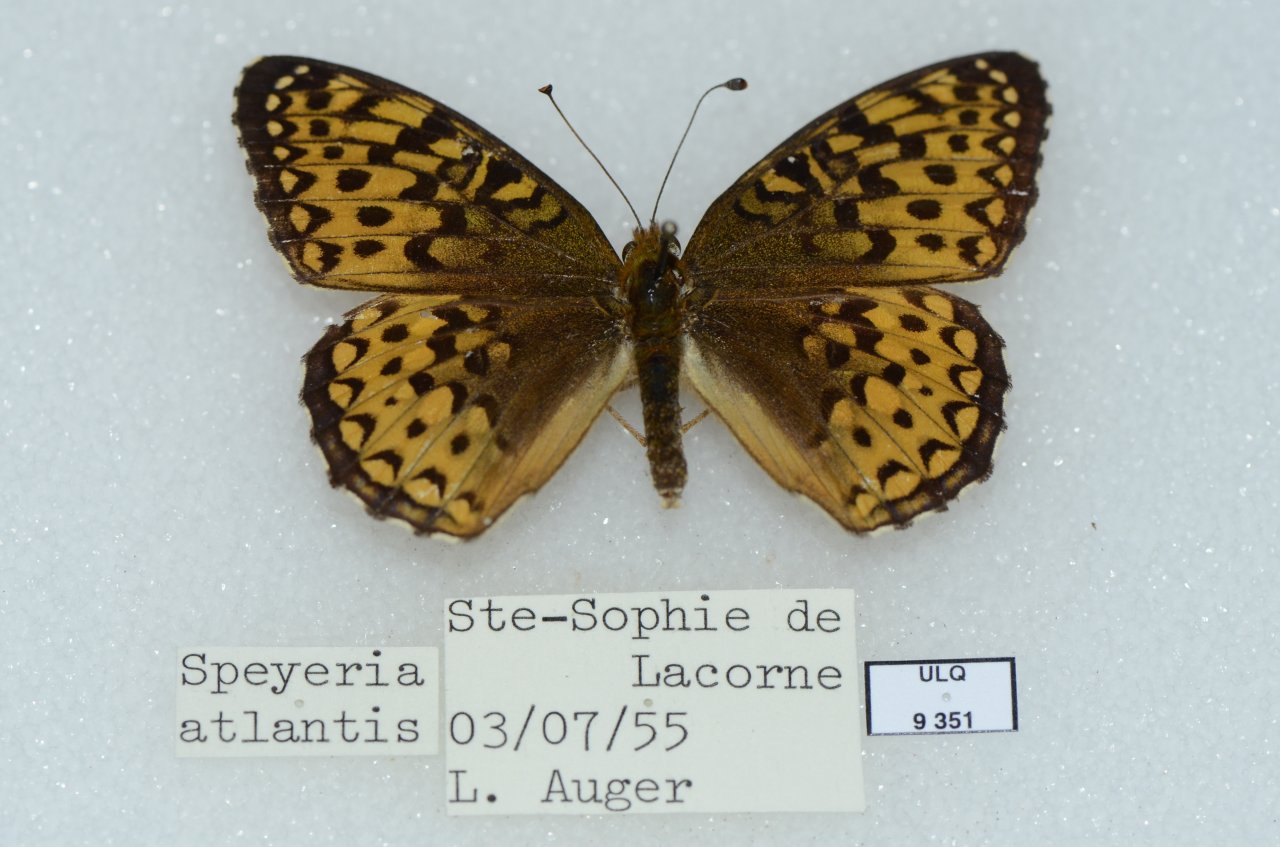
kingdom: Animalia
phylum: Arthropoda
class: Insecta
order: Lepidoptera
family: Nymphalidae
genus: Speyeria
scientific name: Speyeria atlantis
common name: Atlantis Fritillary
